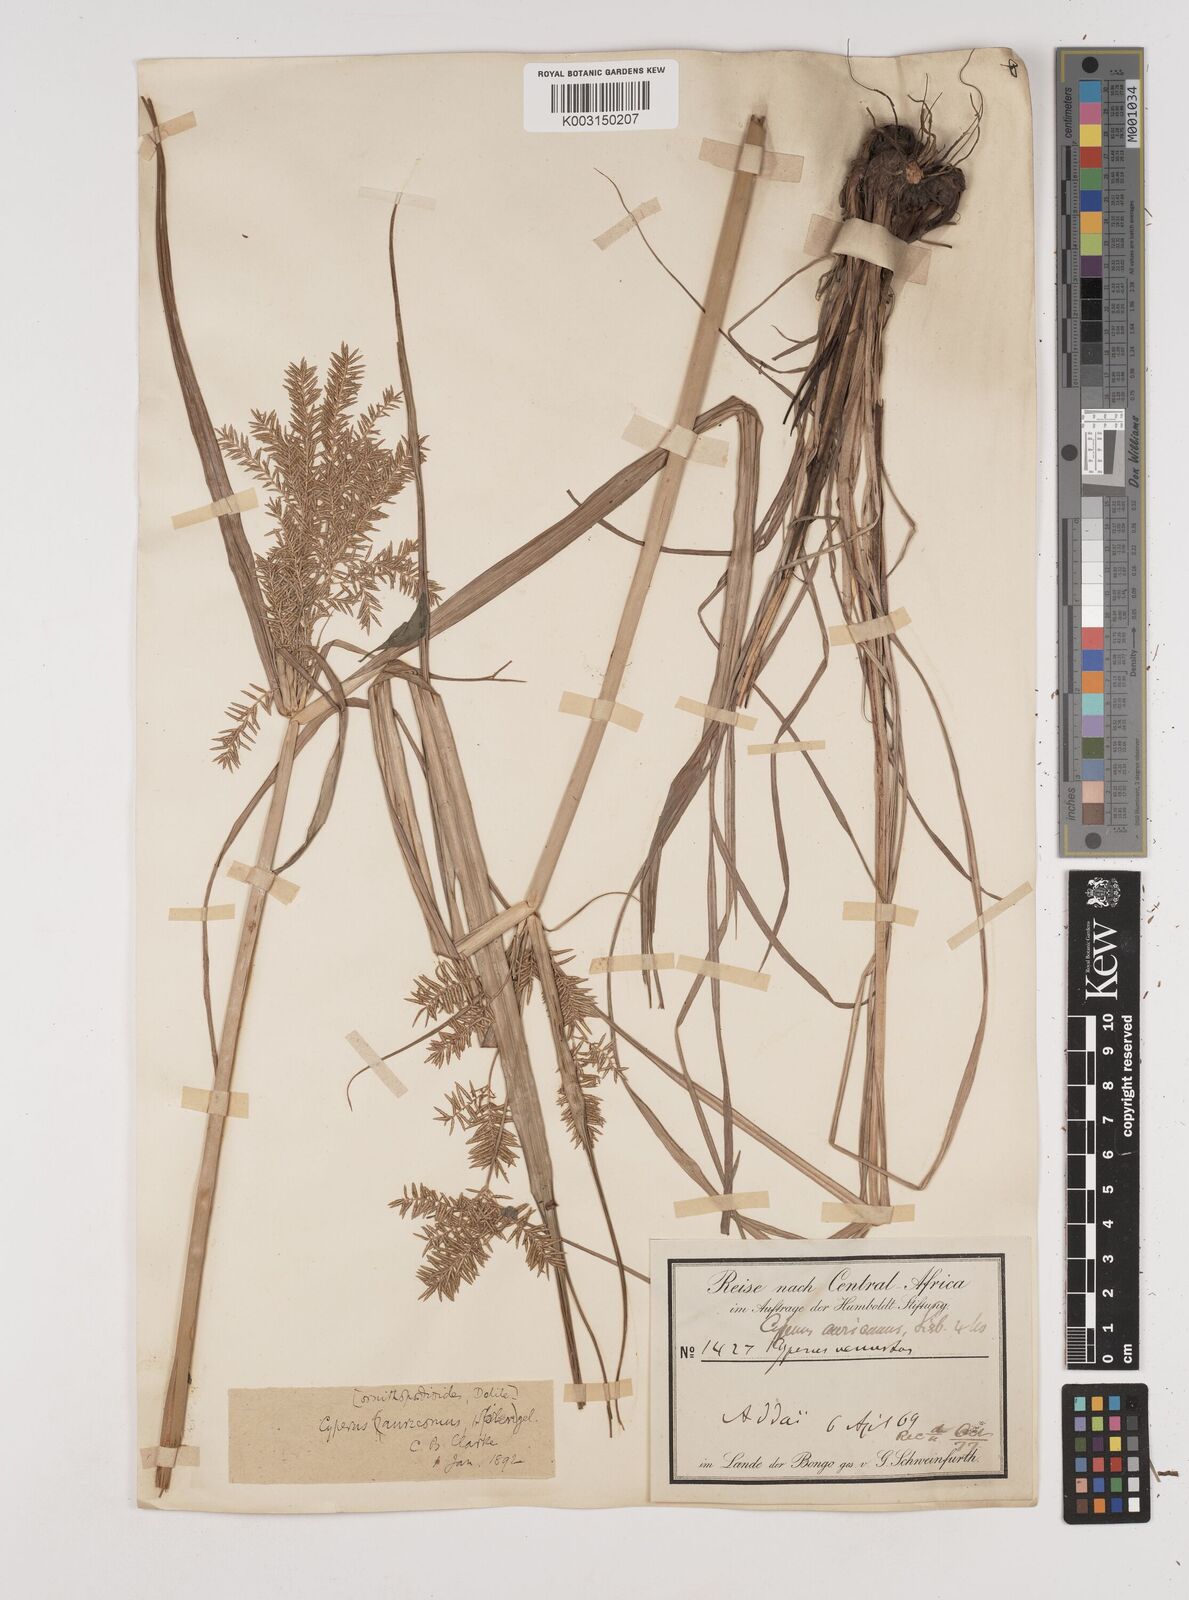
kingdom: Plantae
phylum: Tracheophyta
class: Liliopsida
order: Poales
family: Cyperaceae
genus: Cyperus
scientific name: Cyperus digitatus
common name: Finger flatsedge
